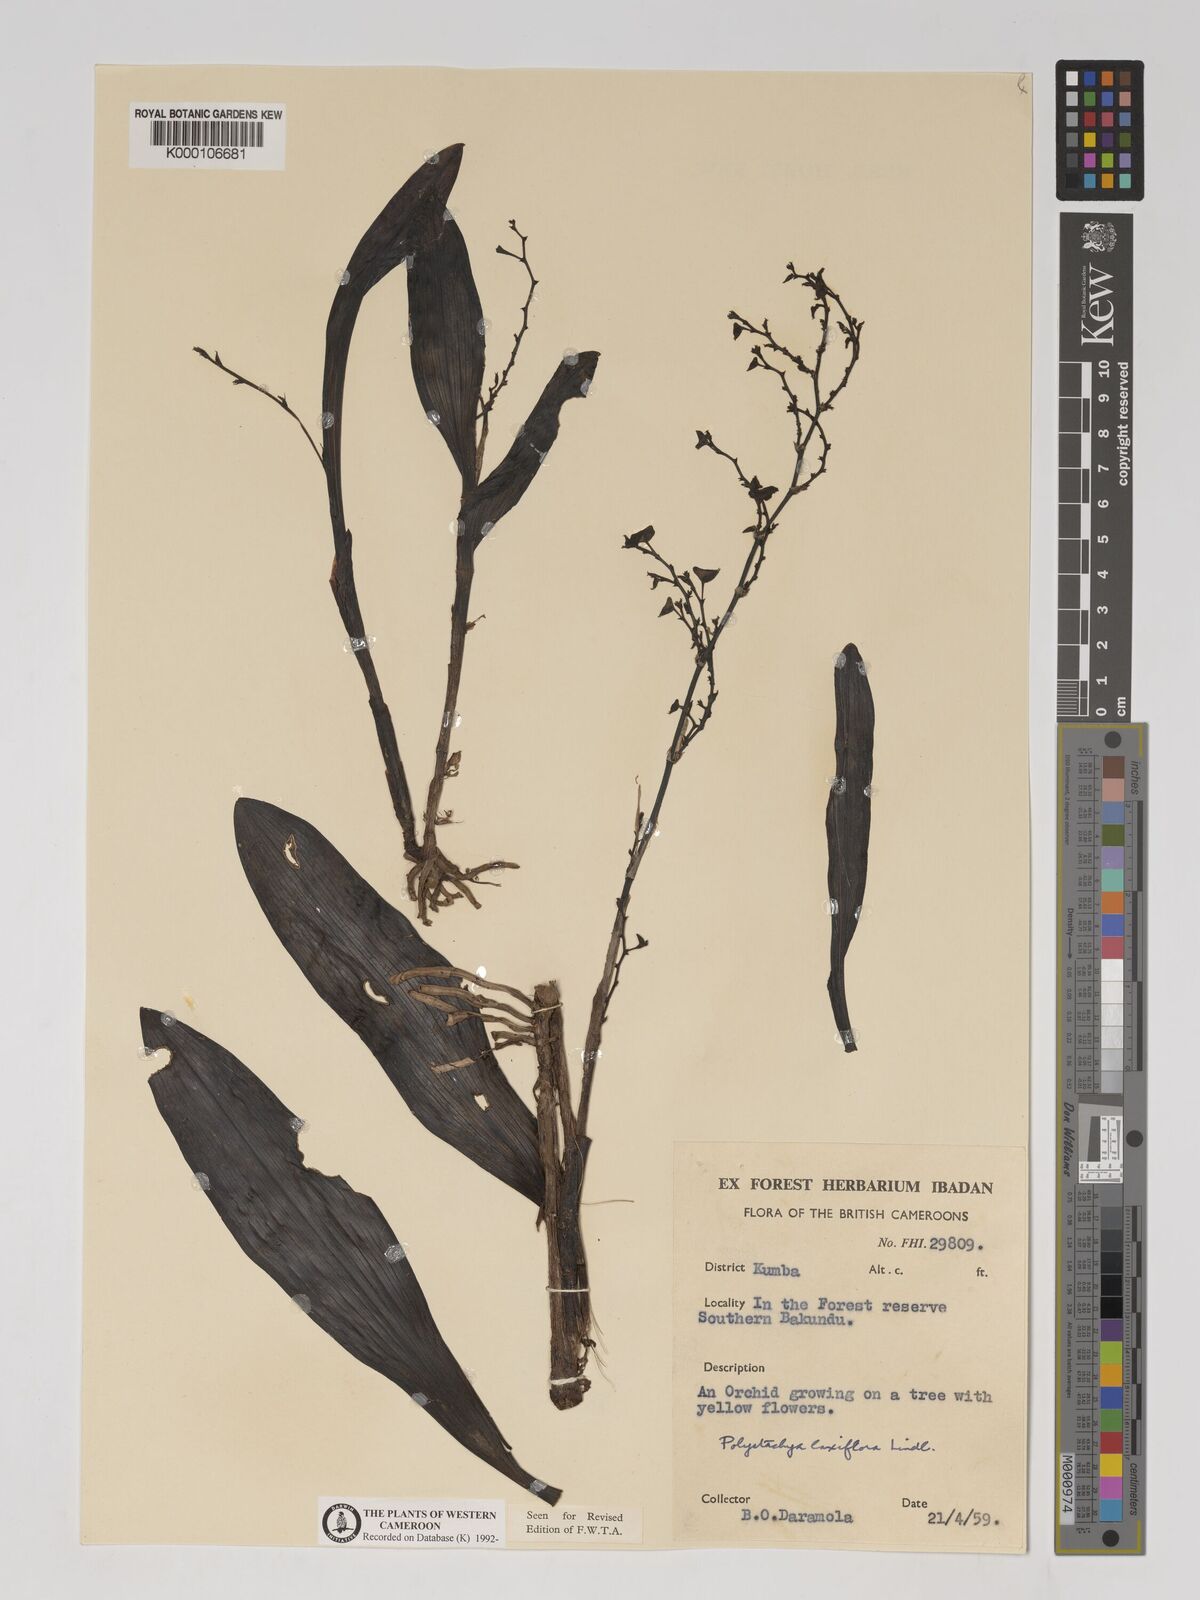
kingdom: Plantae
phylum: Tracheophyta
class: Liliopsida
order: Asparagales
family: Orchidaceae
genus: Polystachya
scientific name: Polystachya laxiflora
